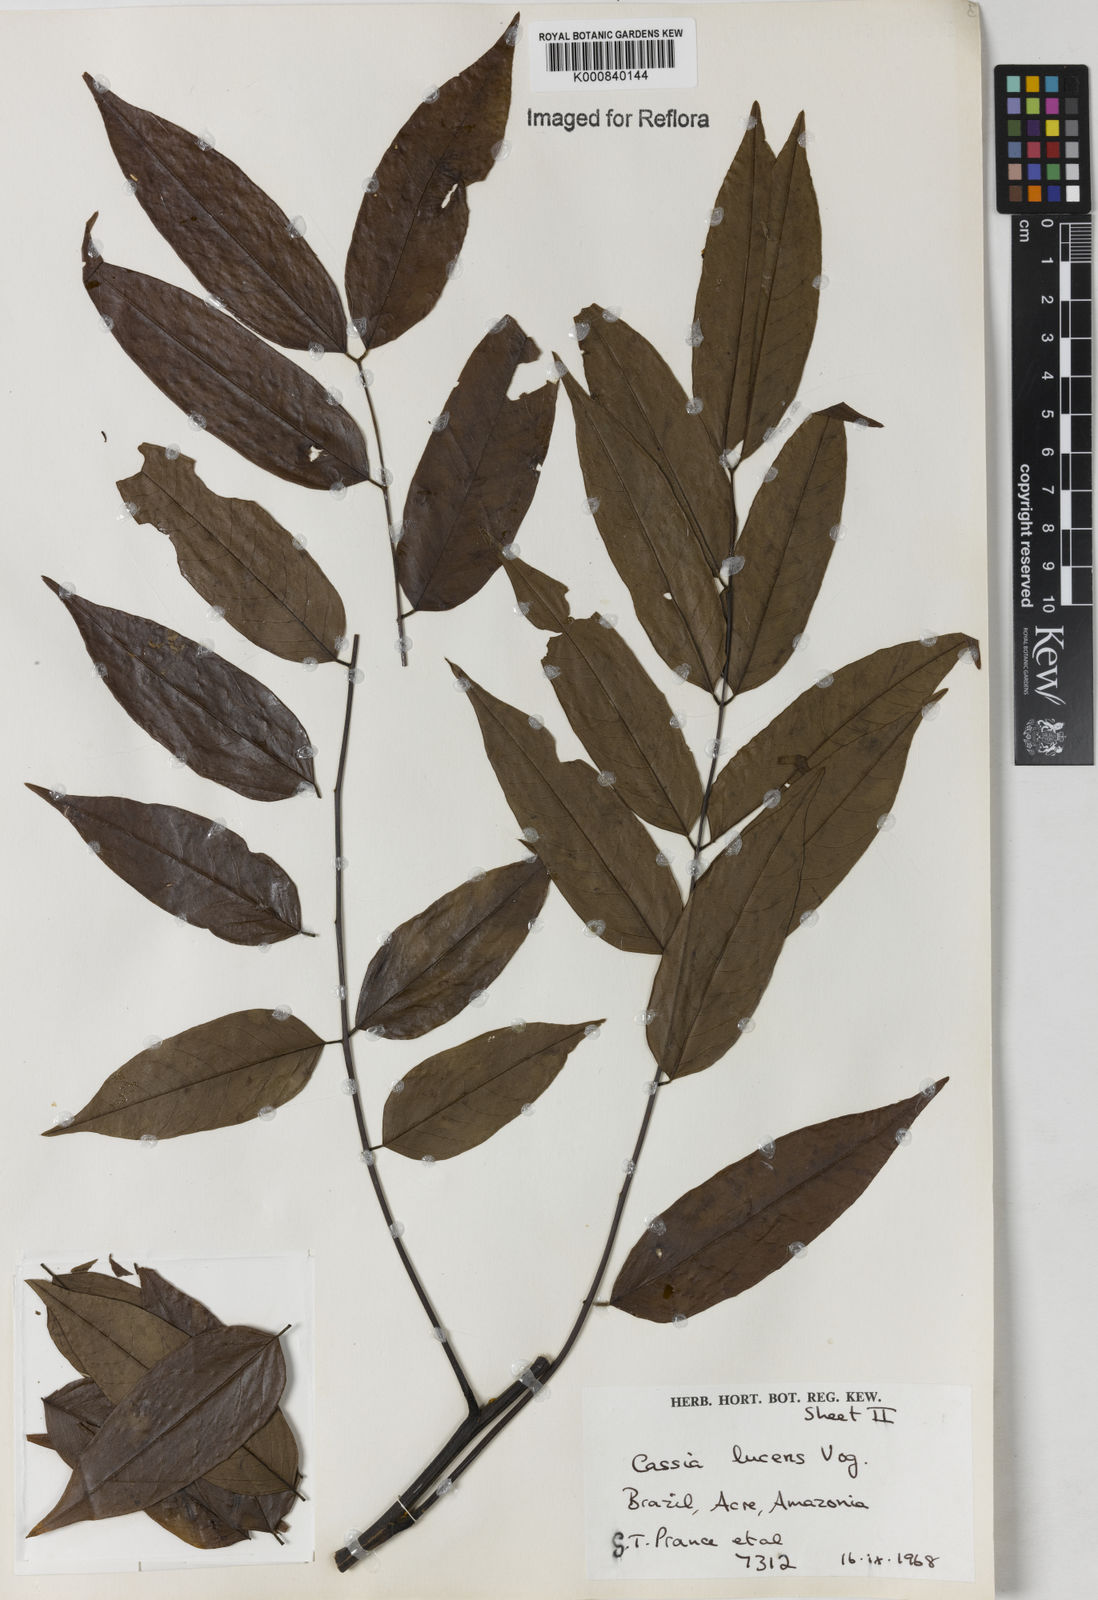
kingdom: Plantae
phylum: Tracheophyta
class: Magnoliopsida
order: Fabales
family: Fabaceae
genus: Senna
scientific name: Senna silvestris
